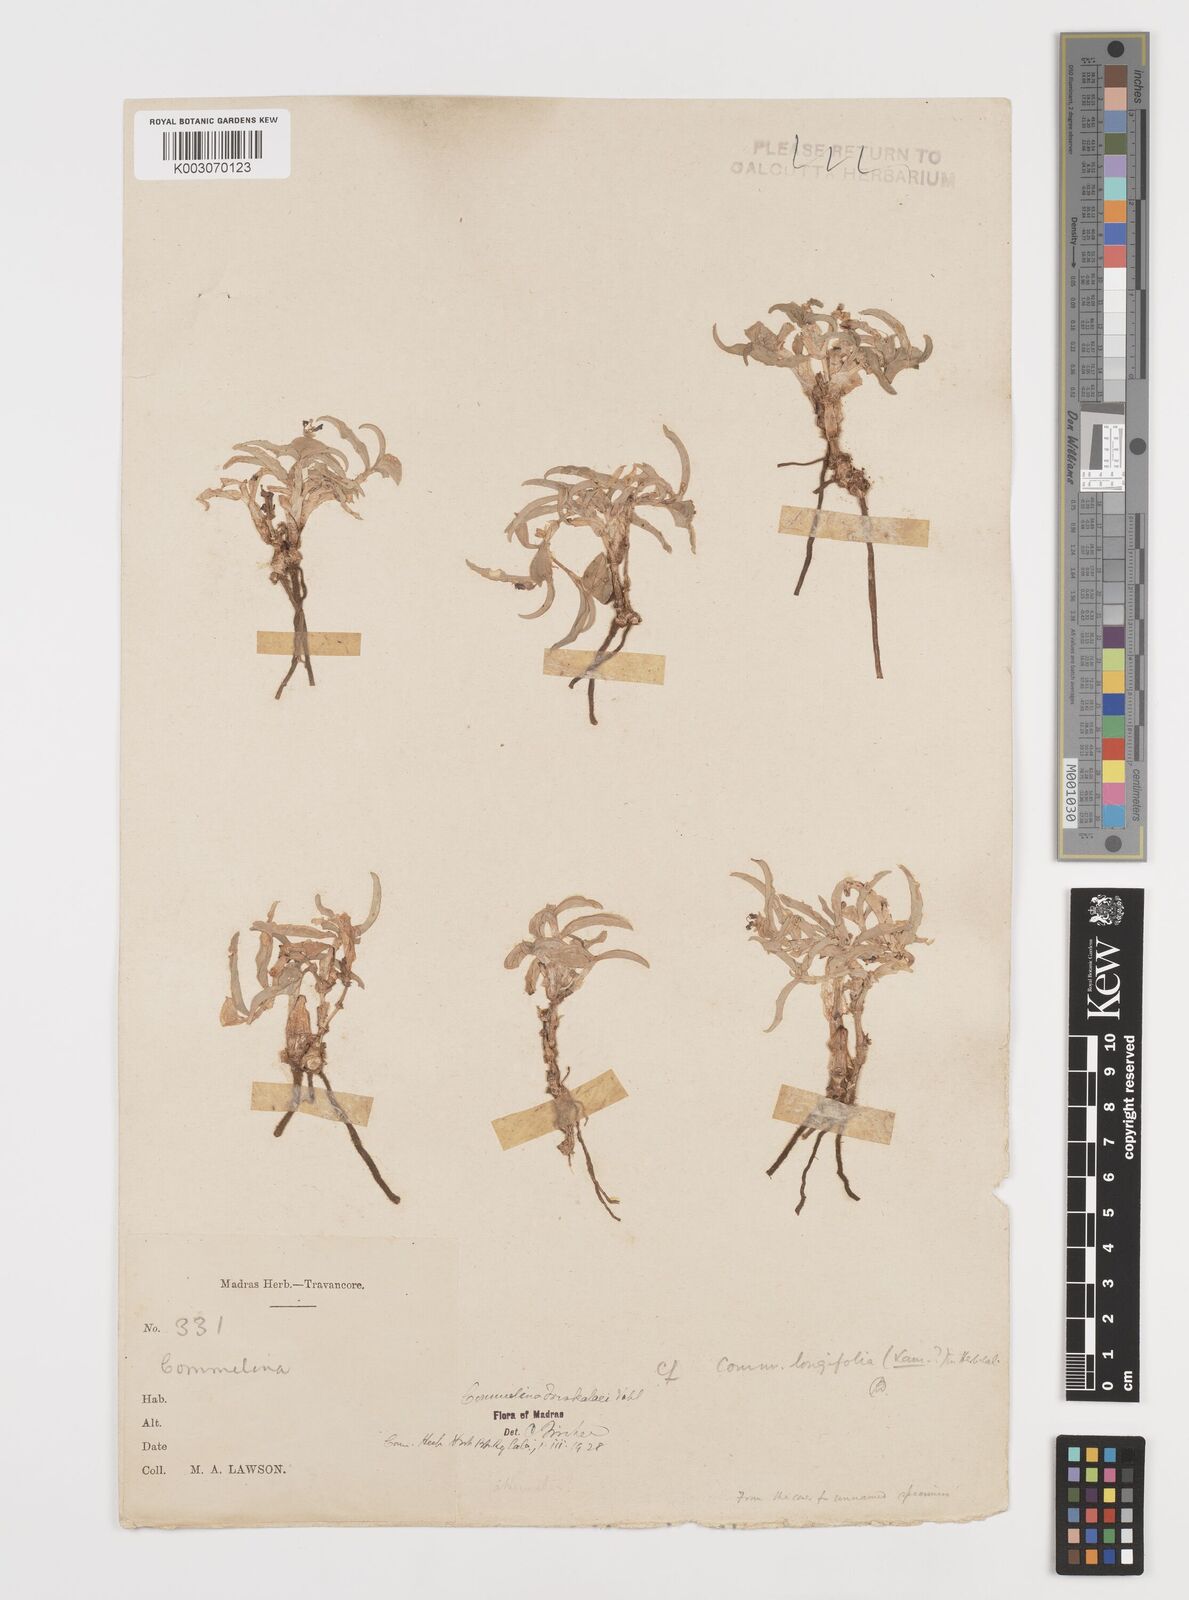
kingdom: Plantae
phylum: Tracheophyta
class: Liliopsida
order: Commelinales
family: Commelinaceae
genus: Commelina
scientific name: Commelina forskaolii
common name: Rat's ear
